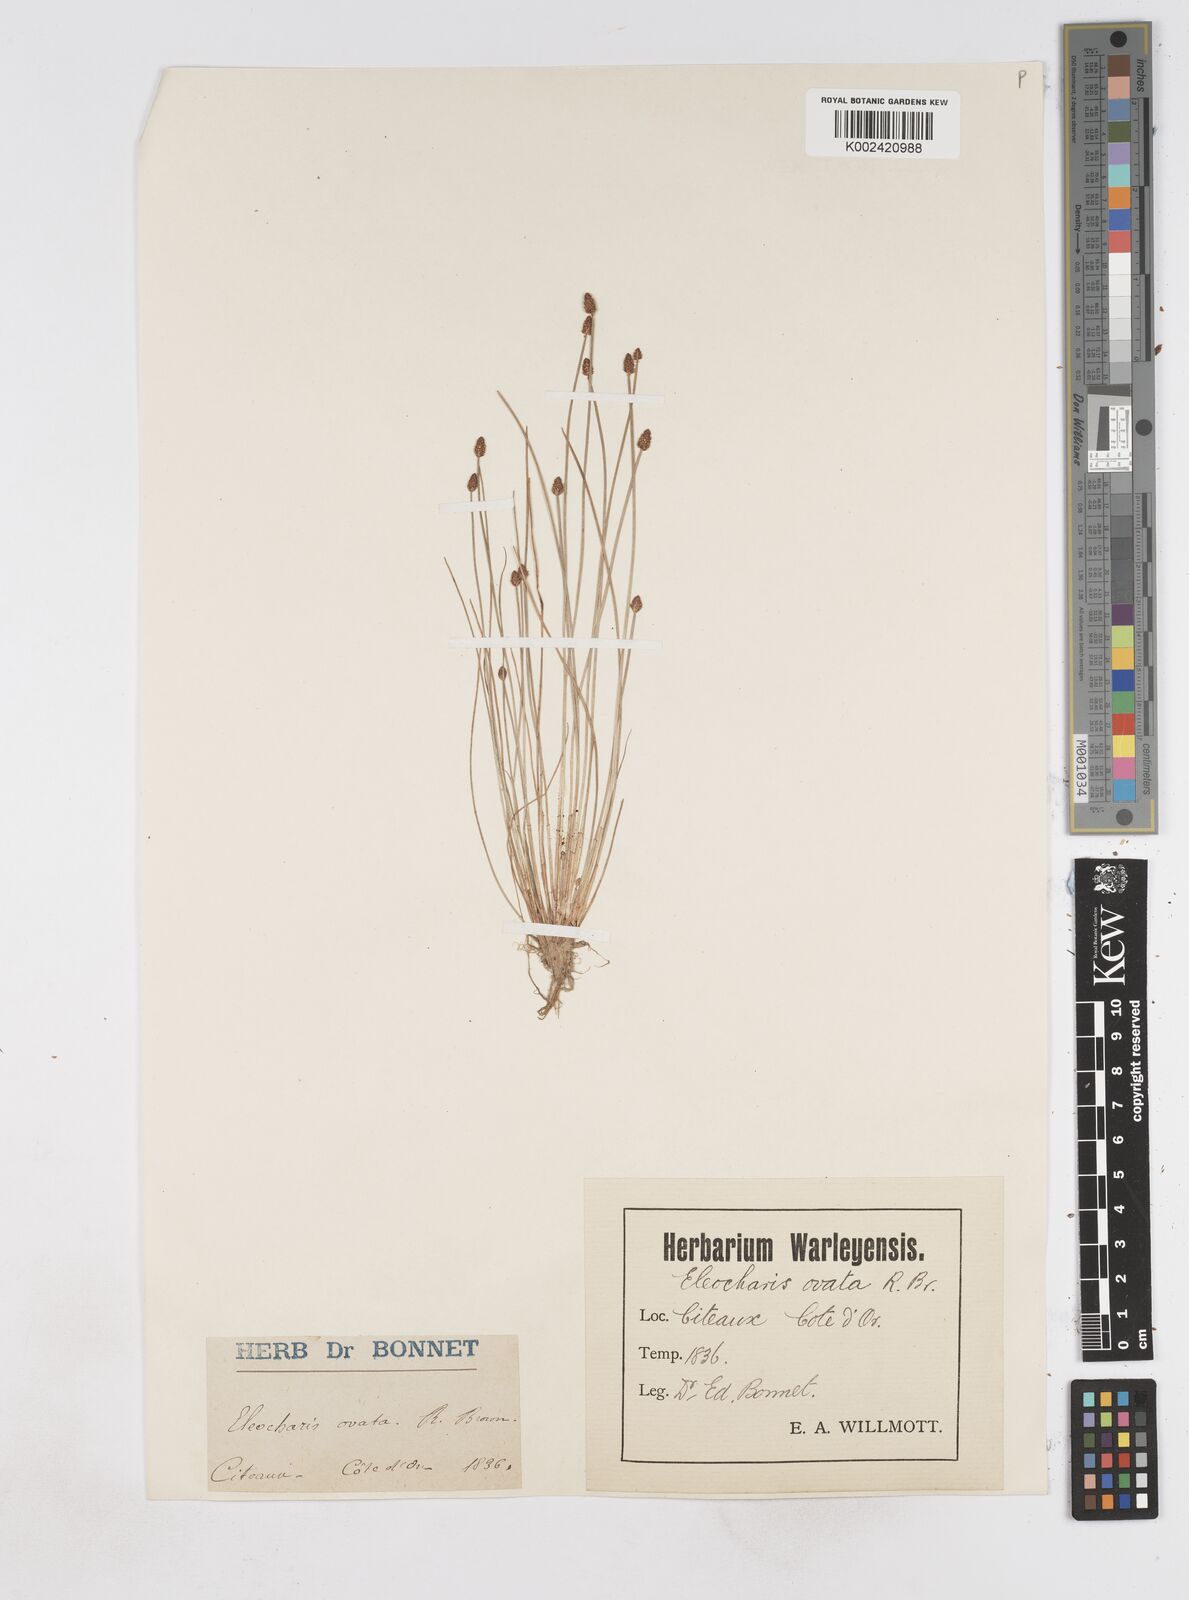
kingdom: Plantae
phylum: Tracheophyta
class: Liliopsida
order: Poales
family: Cyperaceae
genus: Eleocharis
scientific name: Eleocharis ovata
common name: Oval spike-rush
